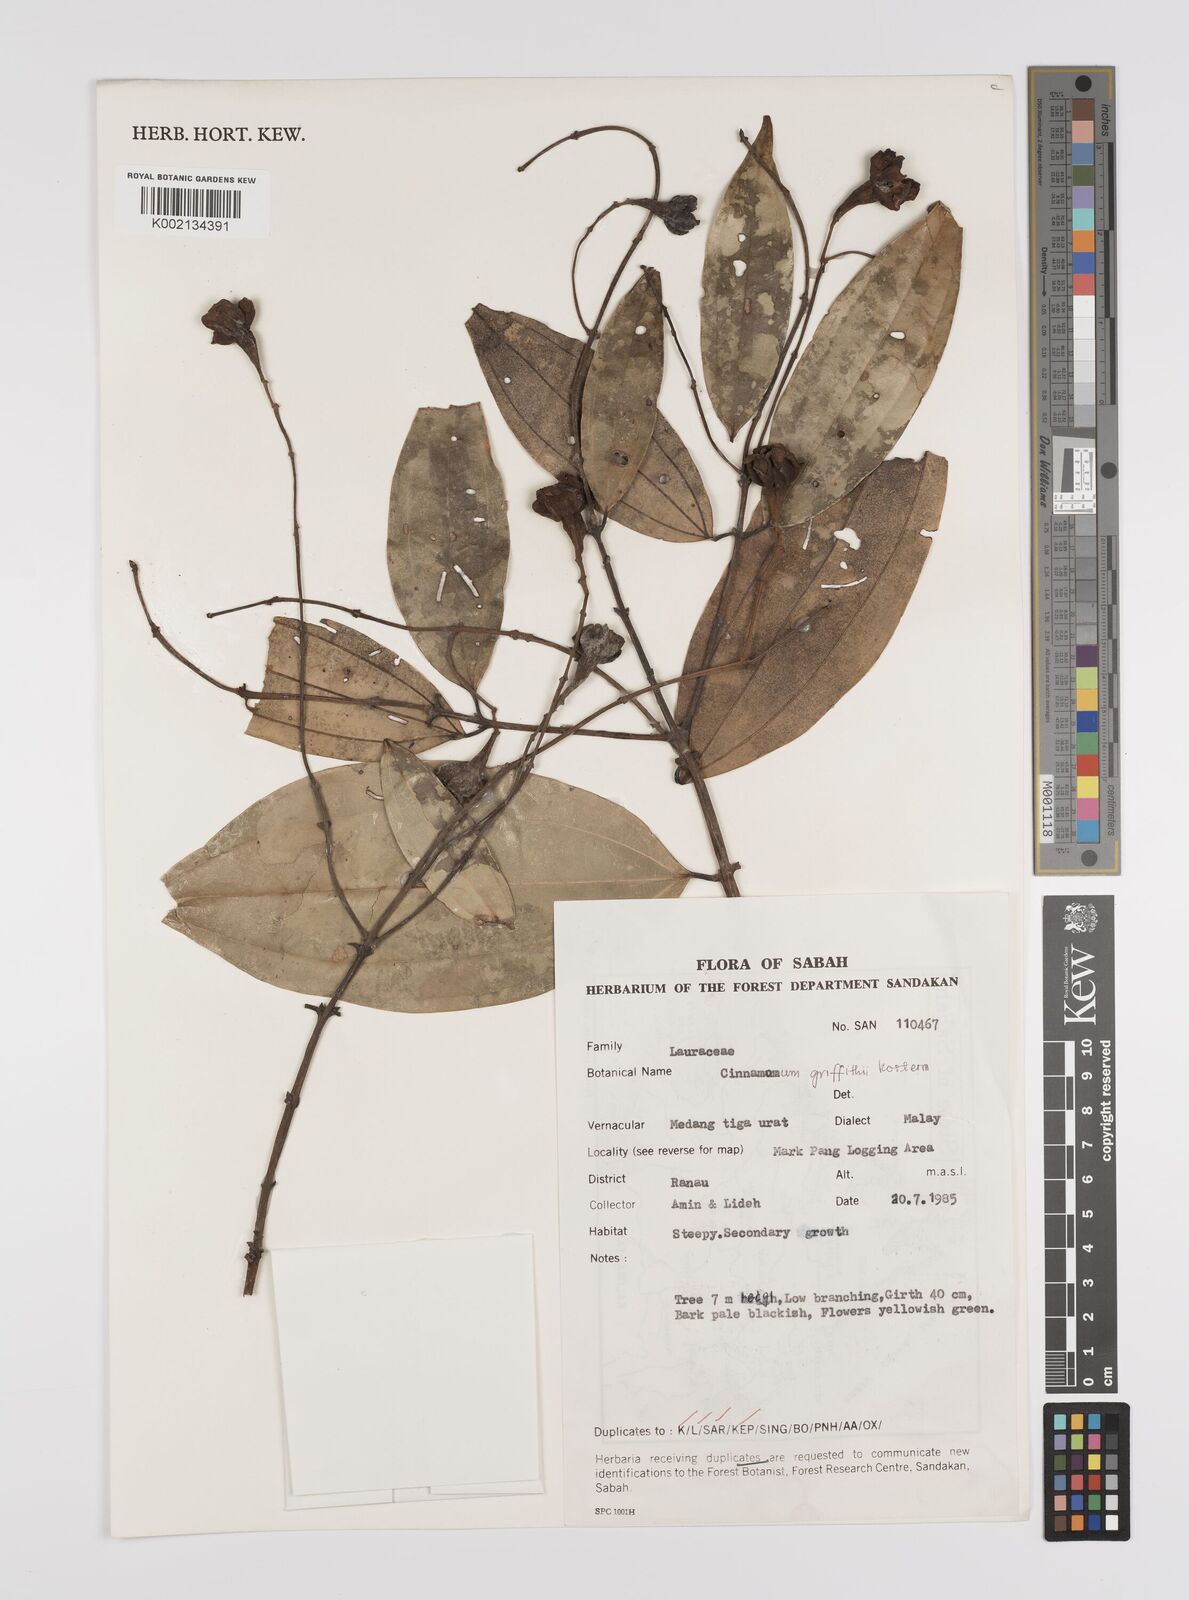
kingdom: Plantae
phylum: Tracheophyta
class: Magnoliopsida
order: Laurales
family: Lauraceae
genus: Cinnamomum
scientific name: Cinnamomum iners
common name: Wild cinnamon
